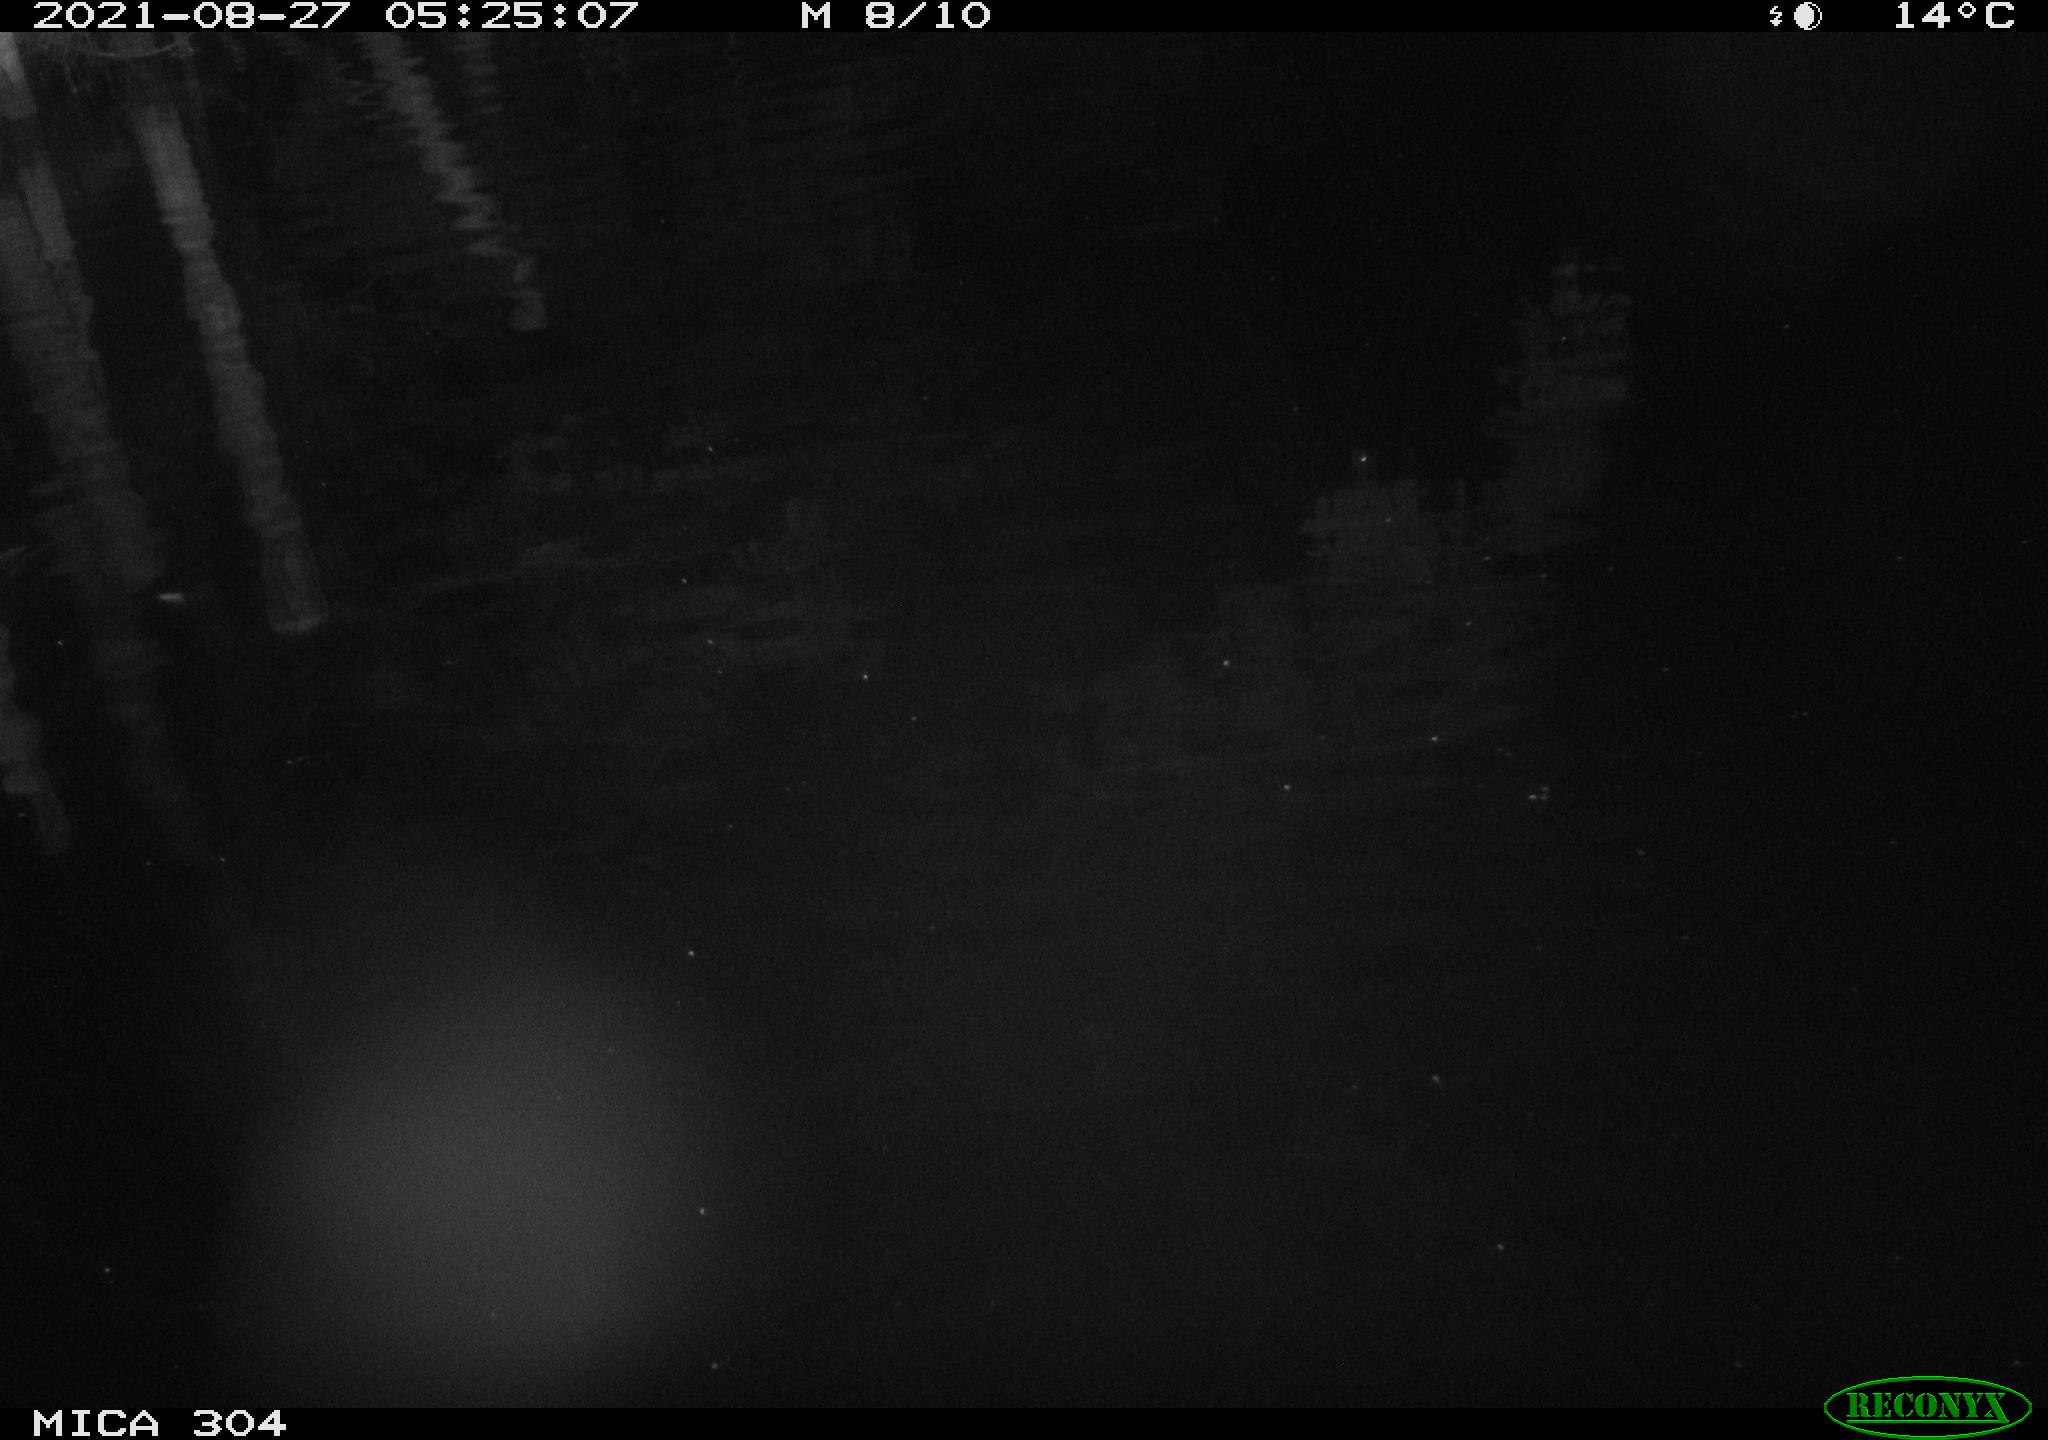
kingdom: Animalia
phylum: Chordata
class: Aves
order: Anseriformes
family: Anatidae
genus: Anas
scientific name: Anas platyrhynchos
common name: Mallard
